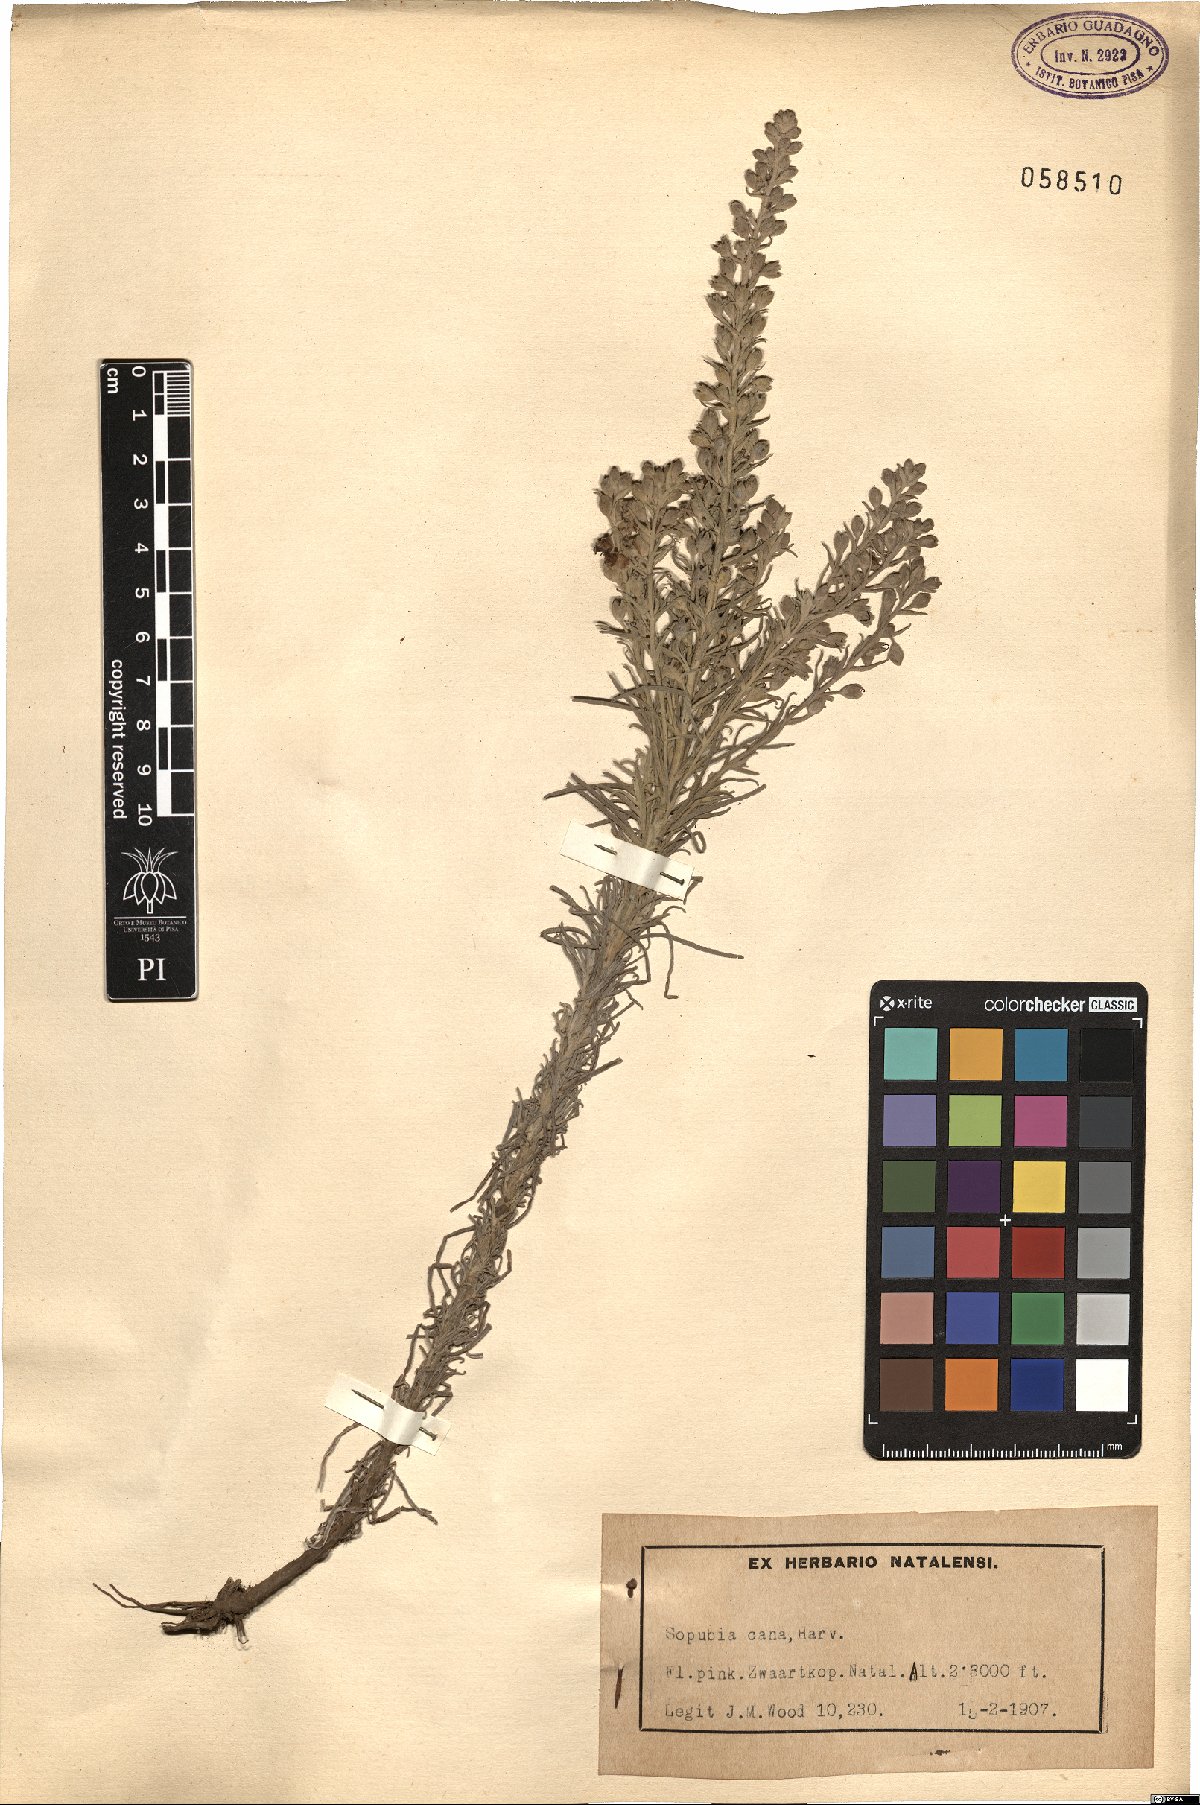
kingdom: Plantae
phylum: Tracheophyta
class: Magnoliopsida
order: Lamiales
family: Orobanchaceae
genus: Sopubia
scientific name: Sopubia cana
